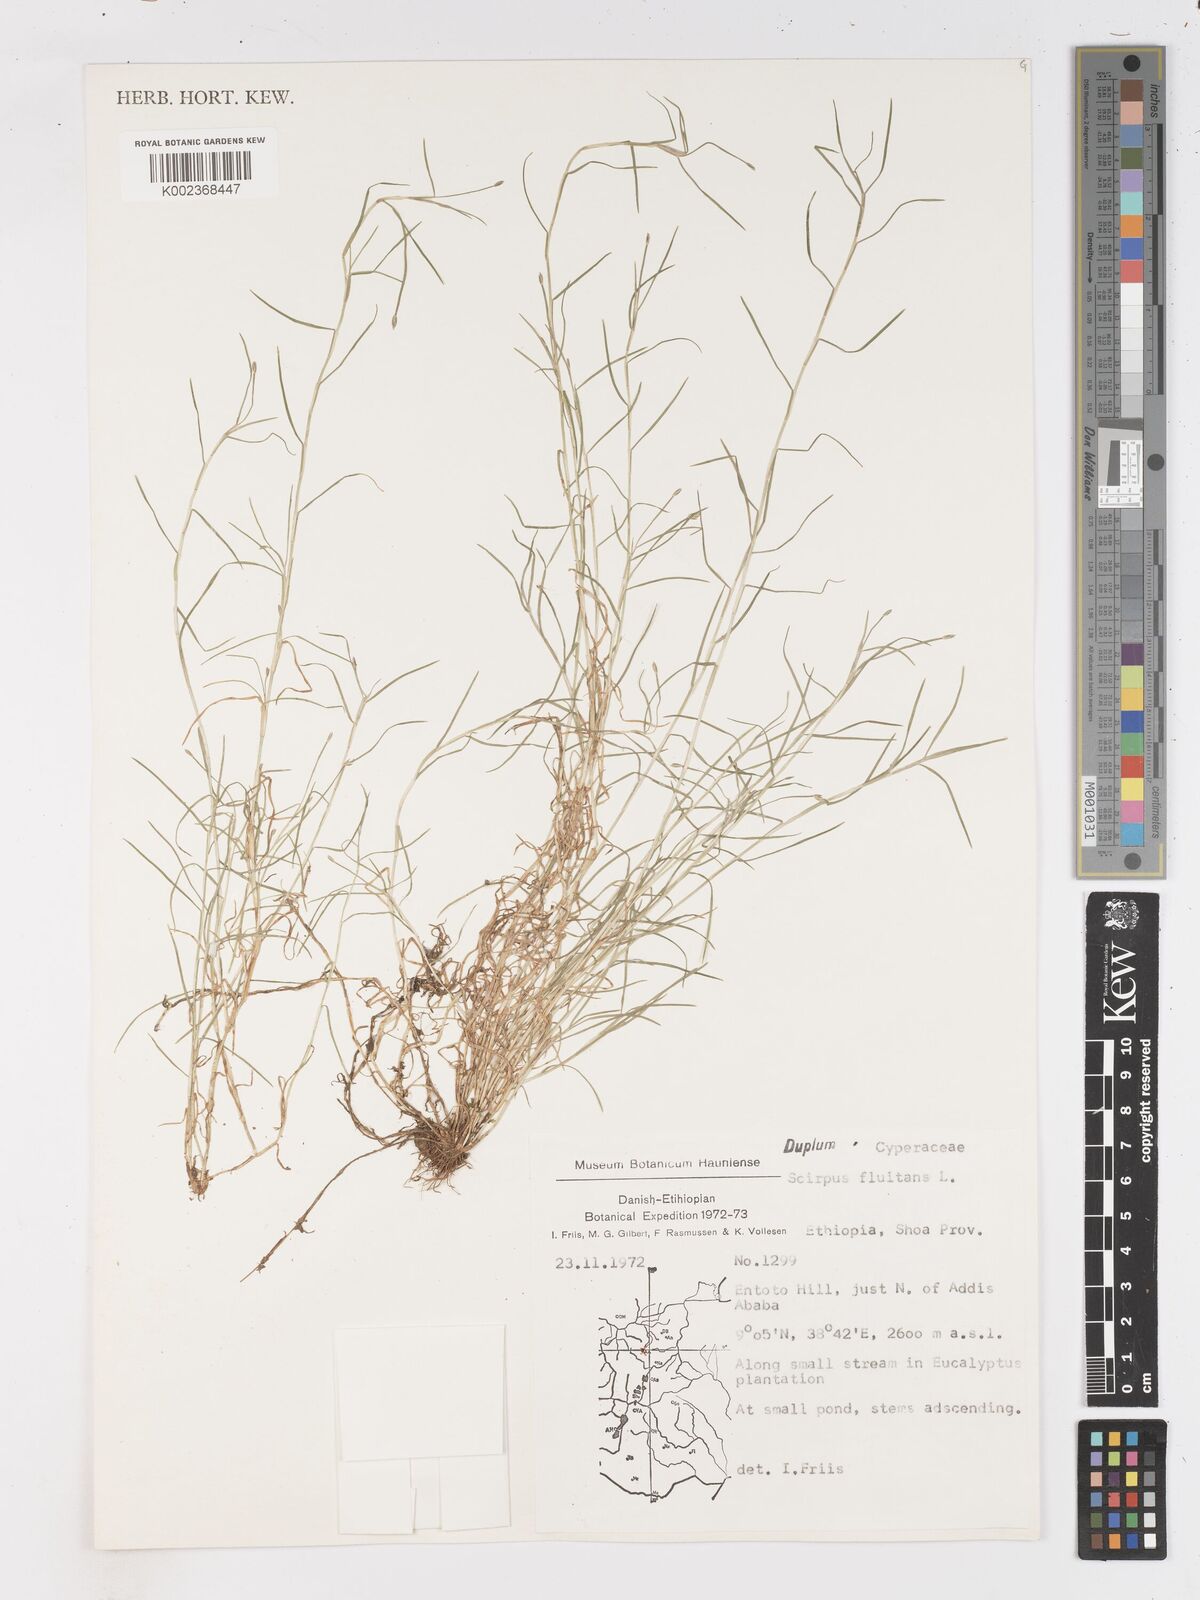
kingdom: Plantae
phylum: Tracheophyta
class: Liliopsida
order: Poales
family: Cyperaceae
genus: Isolepis
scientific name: Isolepis fluitans
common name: Floating club-rush
